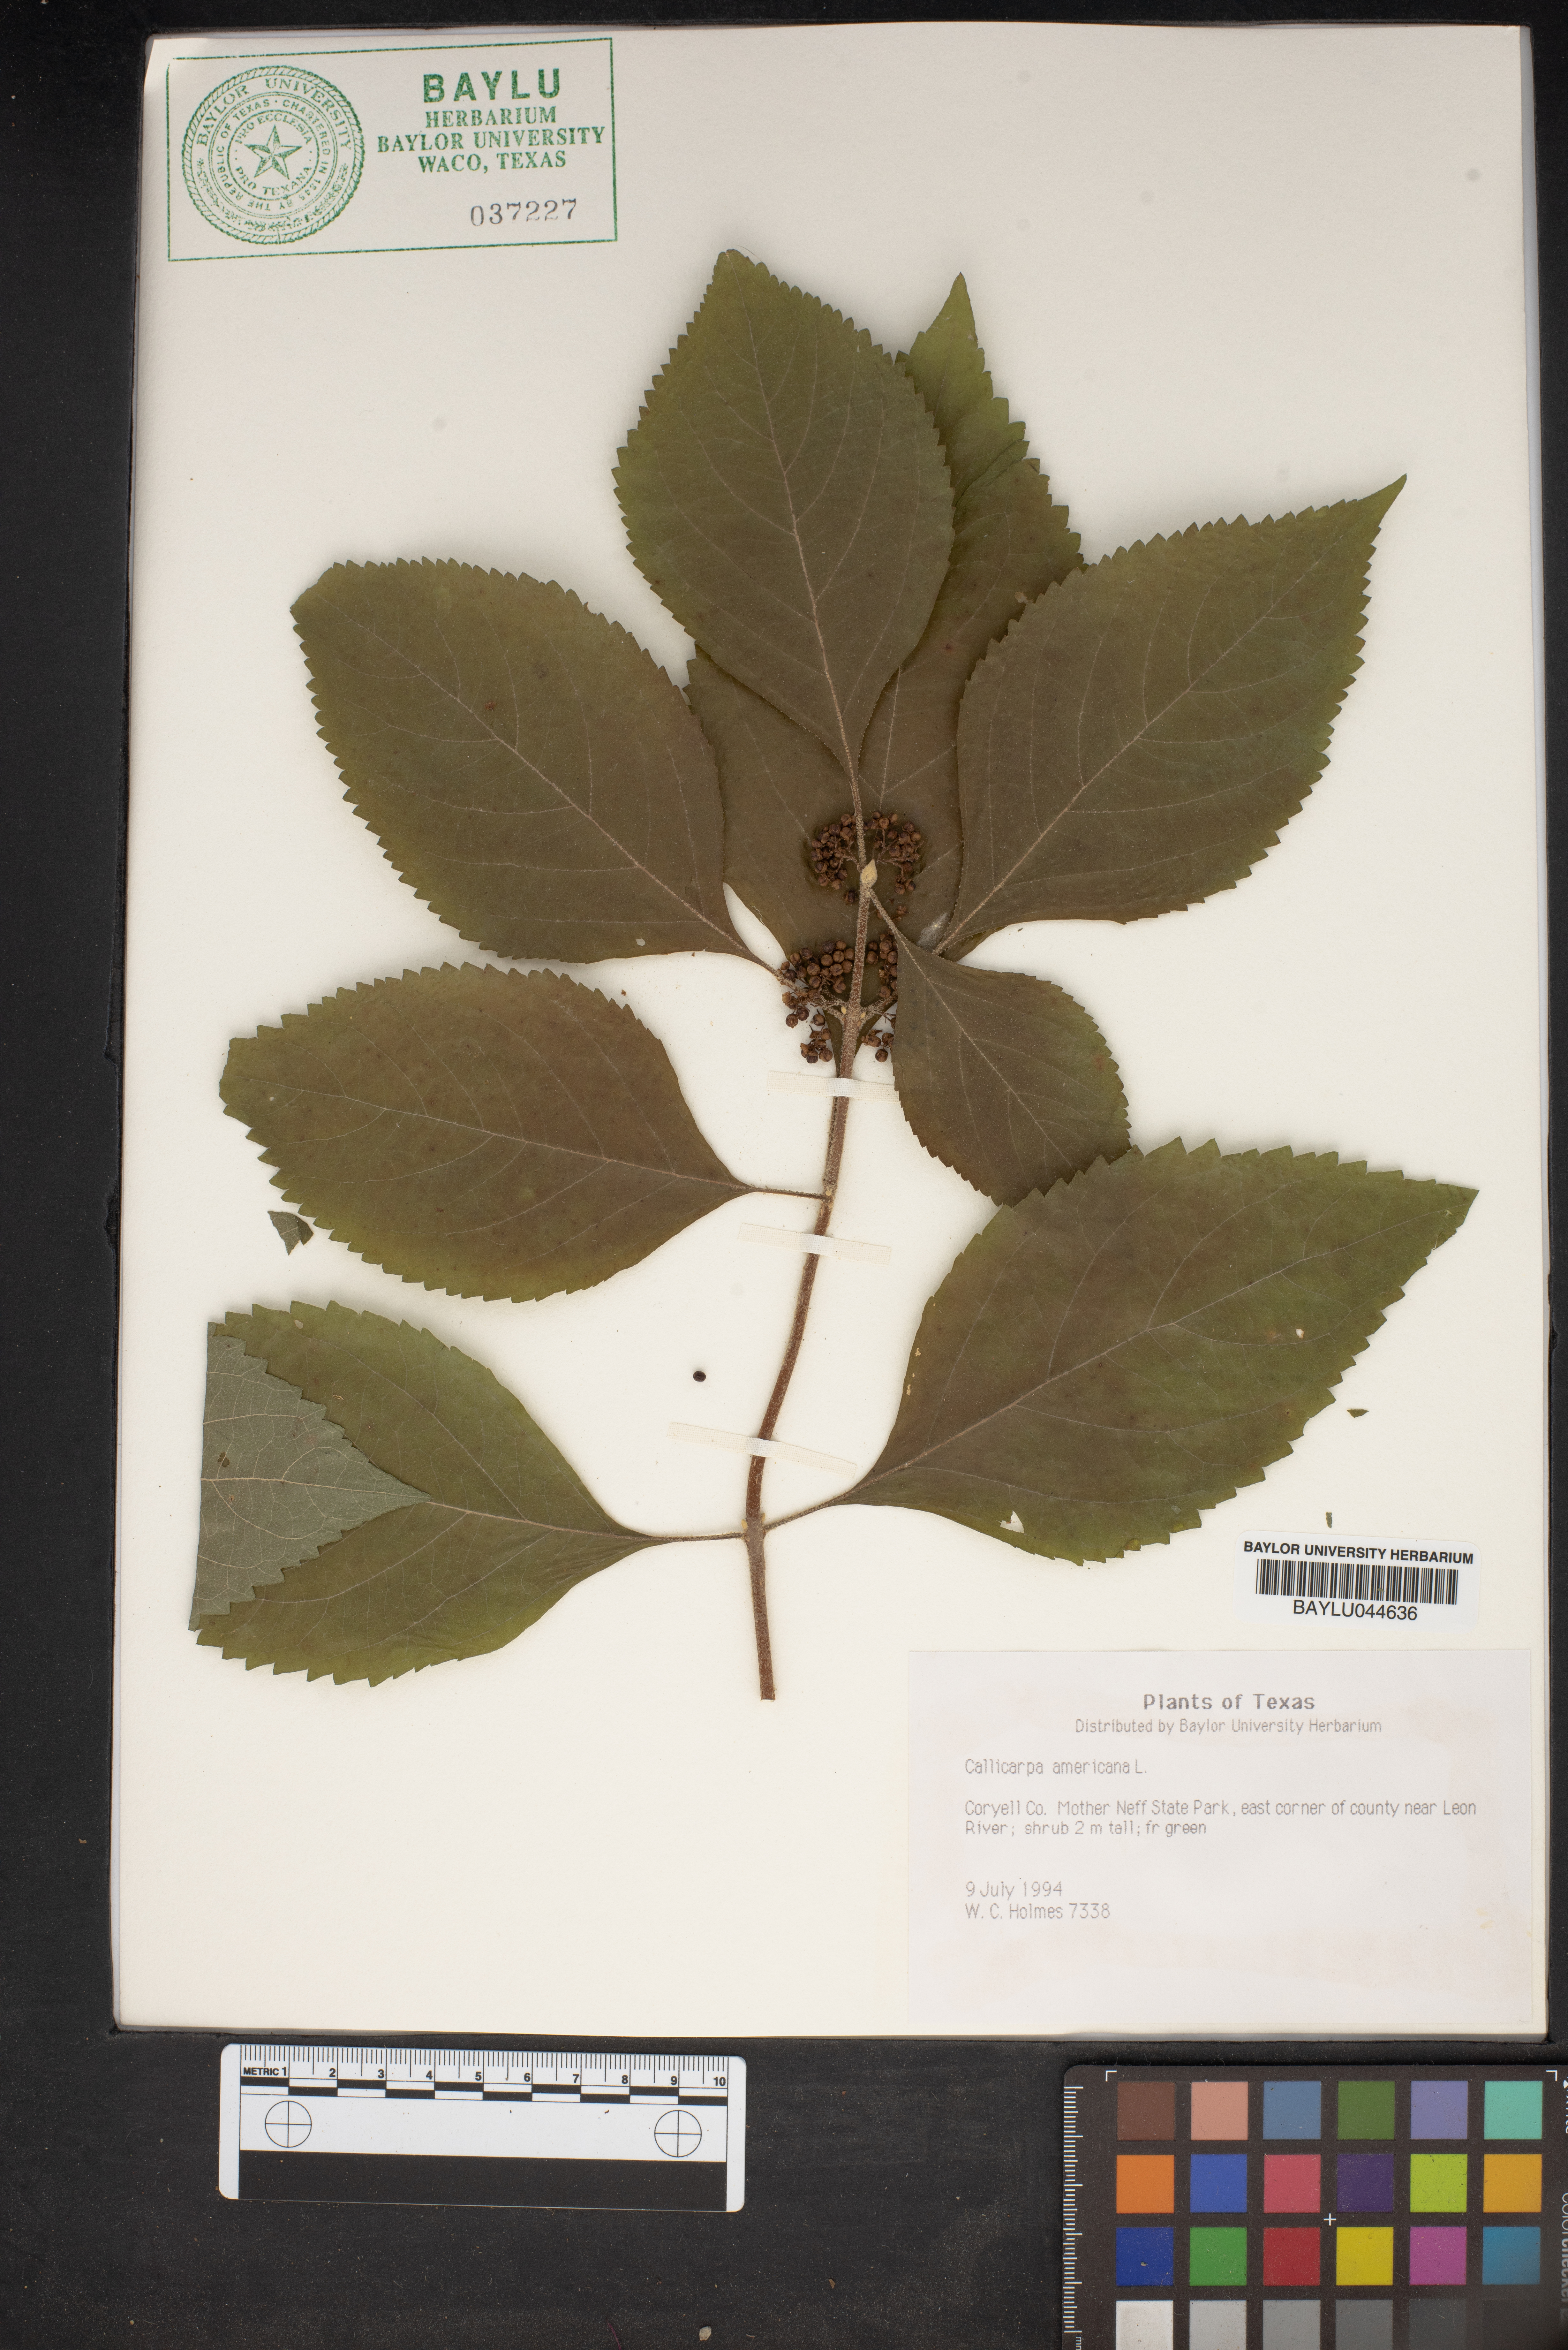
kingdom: Plantae
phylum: Tracheophyta
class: Magnoliopsida
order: Lamiales
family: Lamiaceae
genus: Callicarpa
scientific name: Callicarpa americana
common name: American beautyberry
